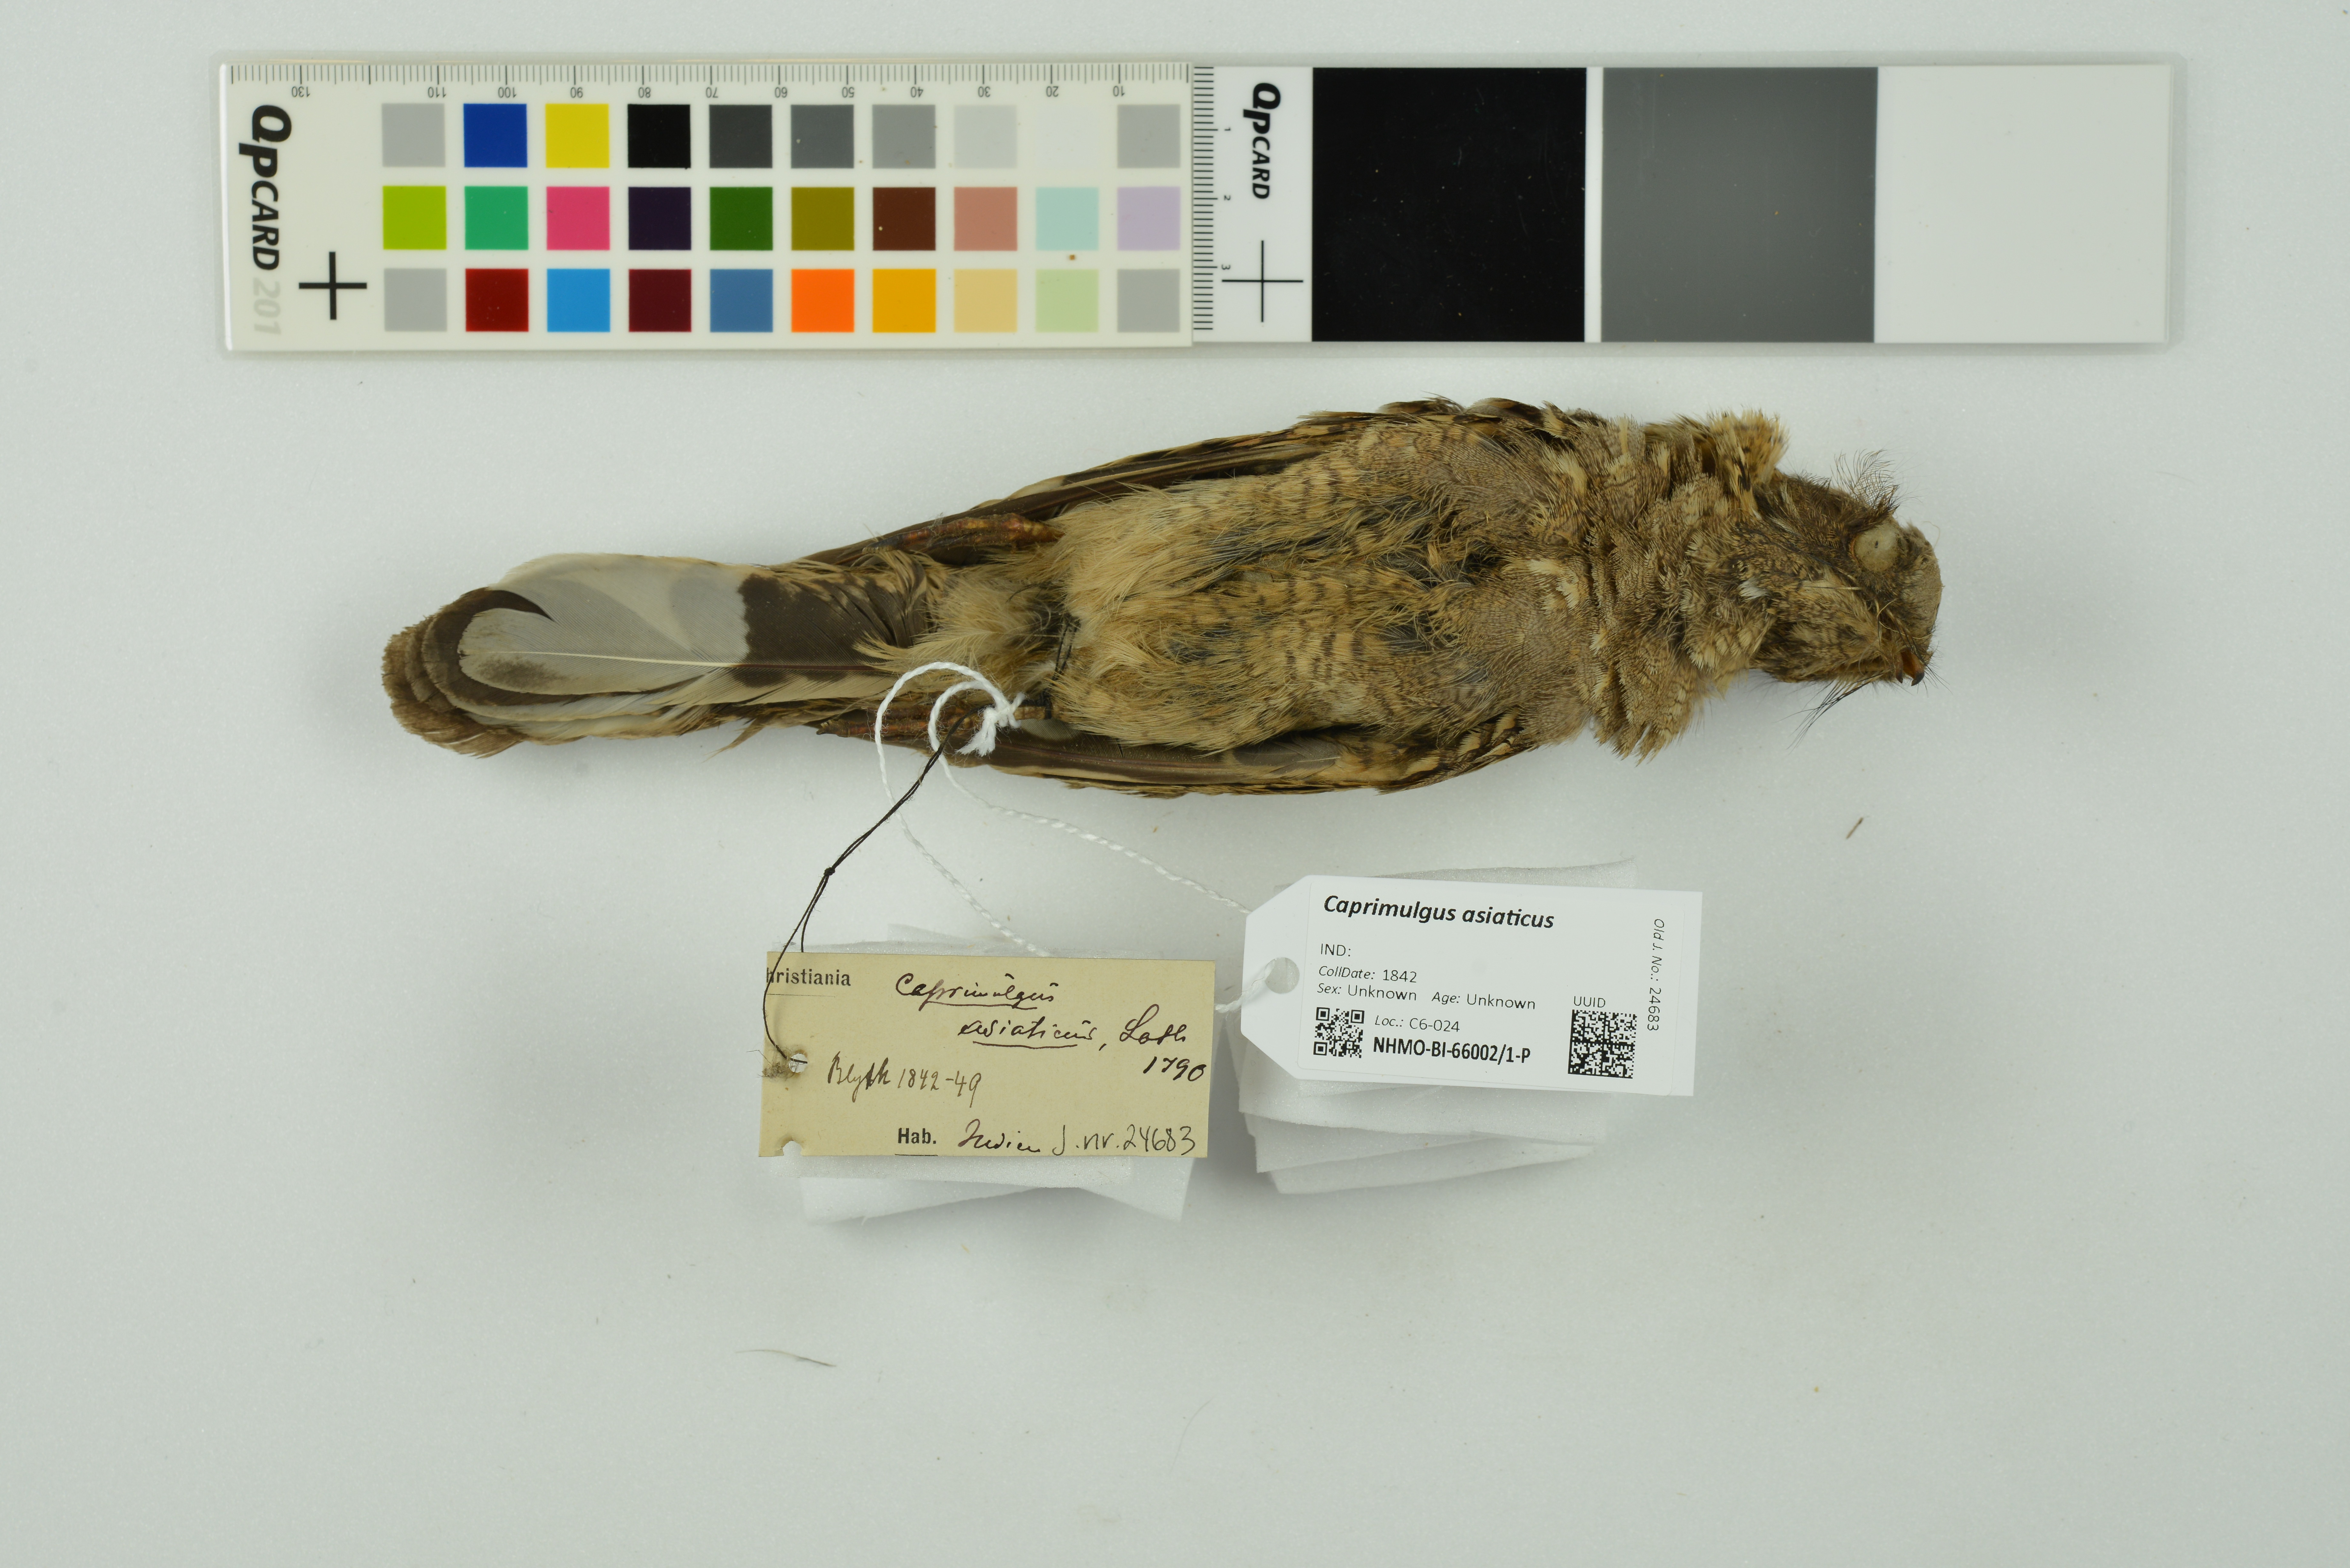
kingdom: Animalia
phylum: Chordata
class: Aves
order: Caprimulgiformes
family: Caprimulgidae
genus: Caprimulgus
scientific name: Caprimulgus asiaticus
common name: Indian nightjar
